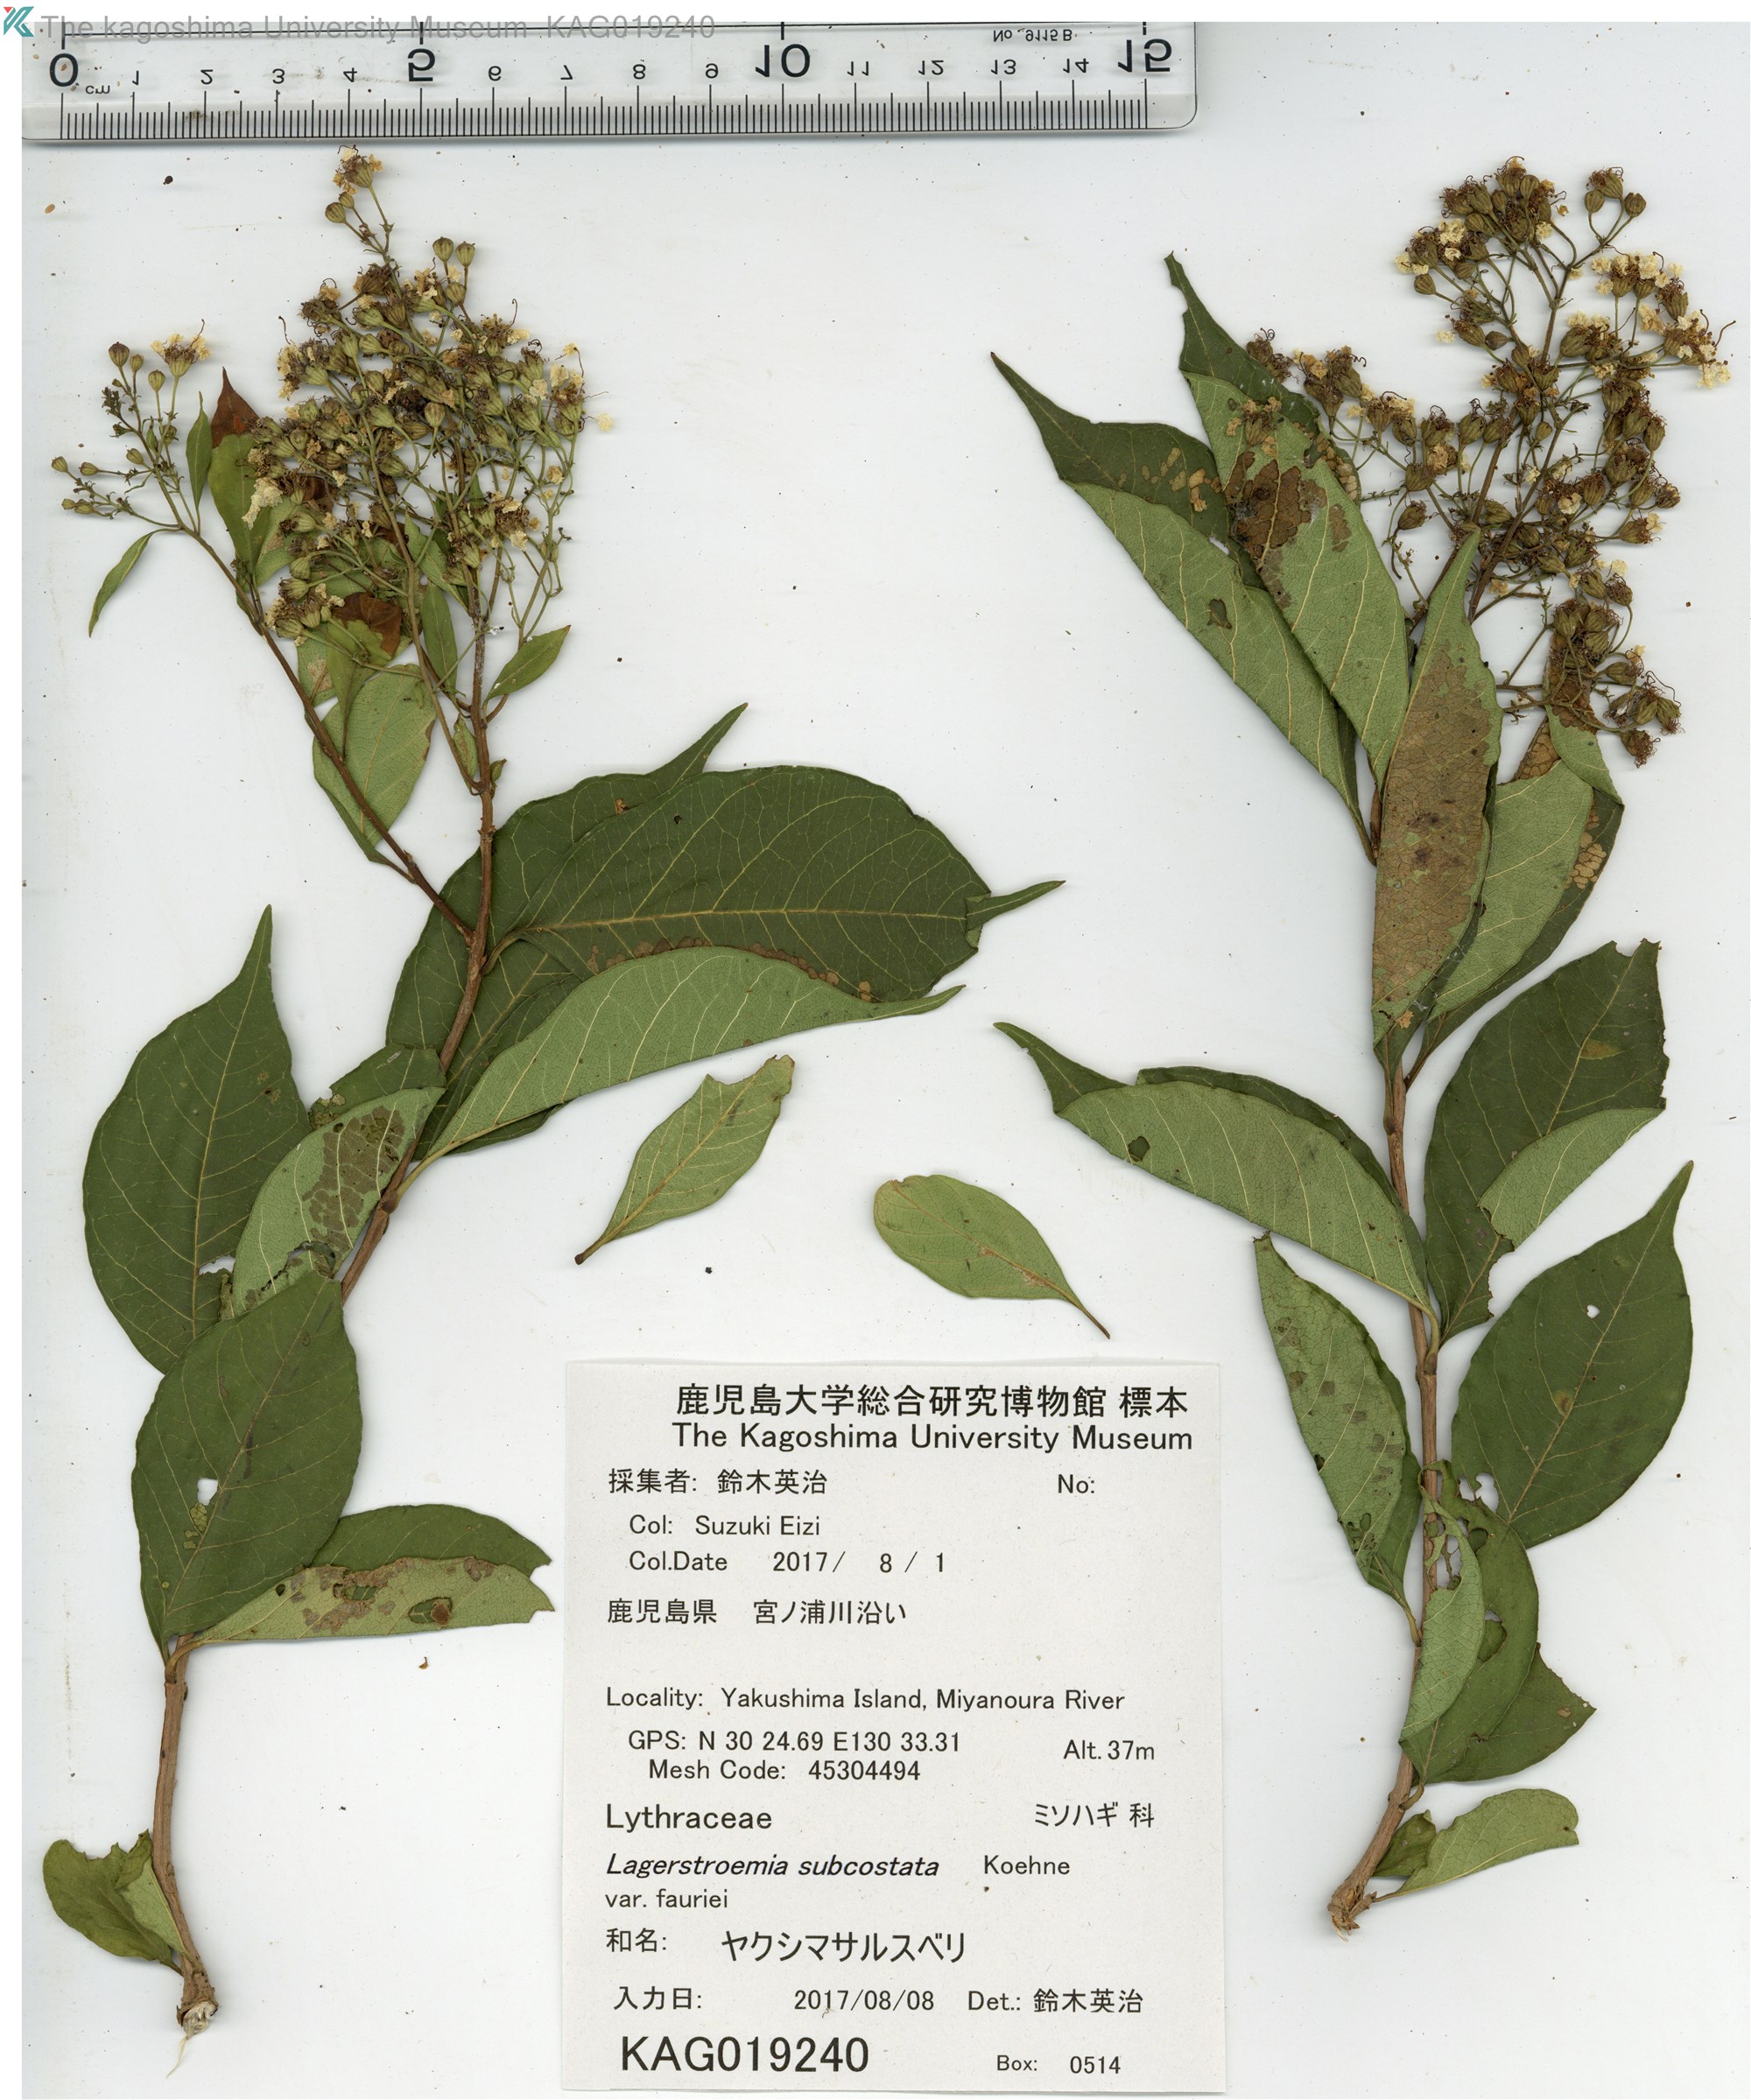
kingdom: Plantae
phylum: Tracheophyta
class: Magnoliopsida
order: Myrtales
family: Lythraceae
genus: Lagerstroemia
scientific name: Lagerstroemia subcostata
